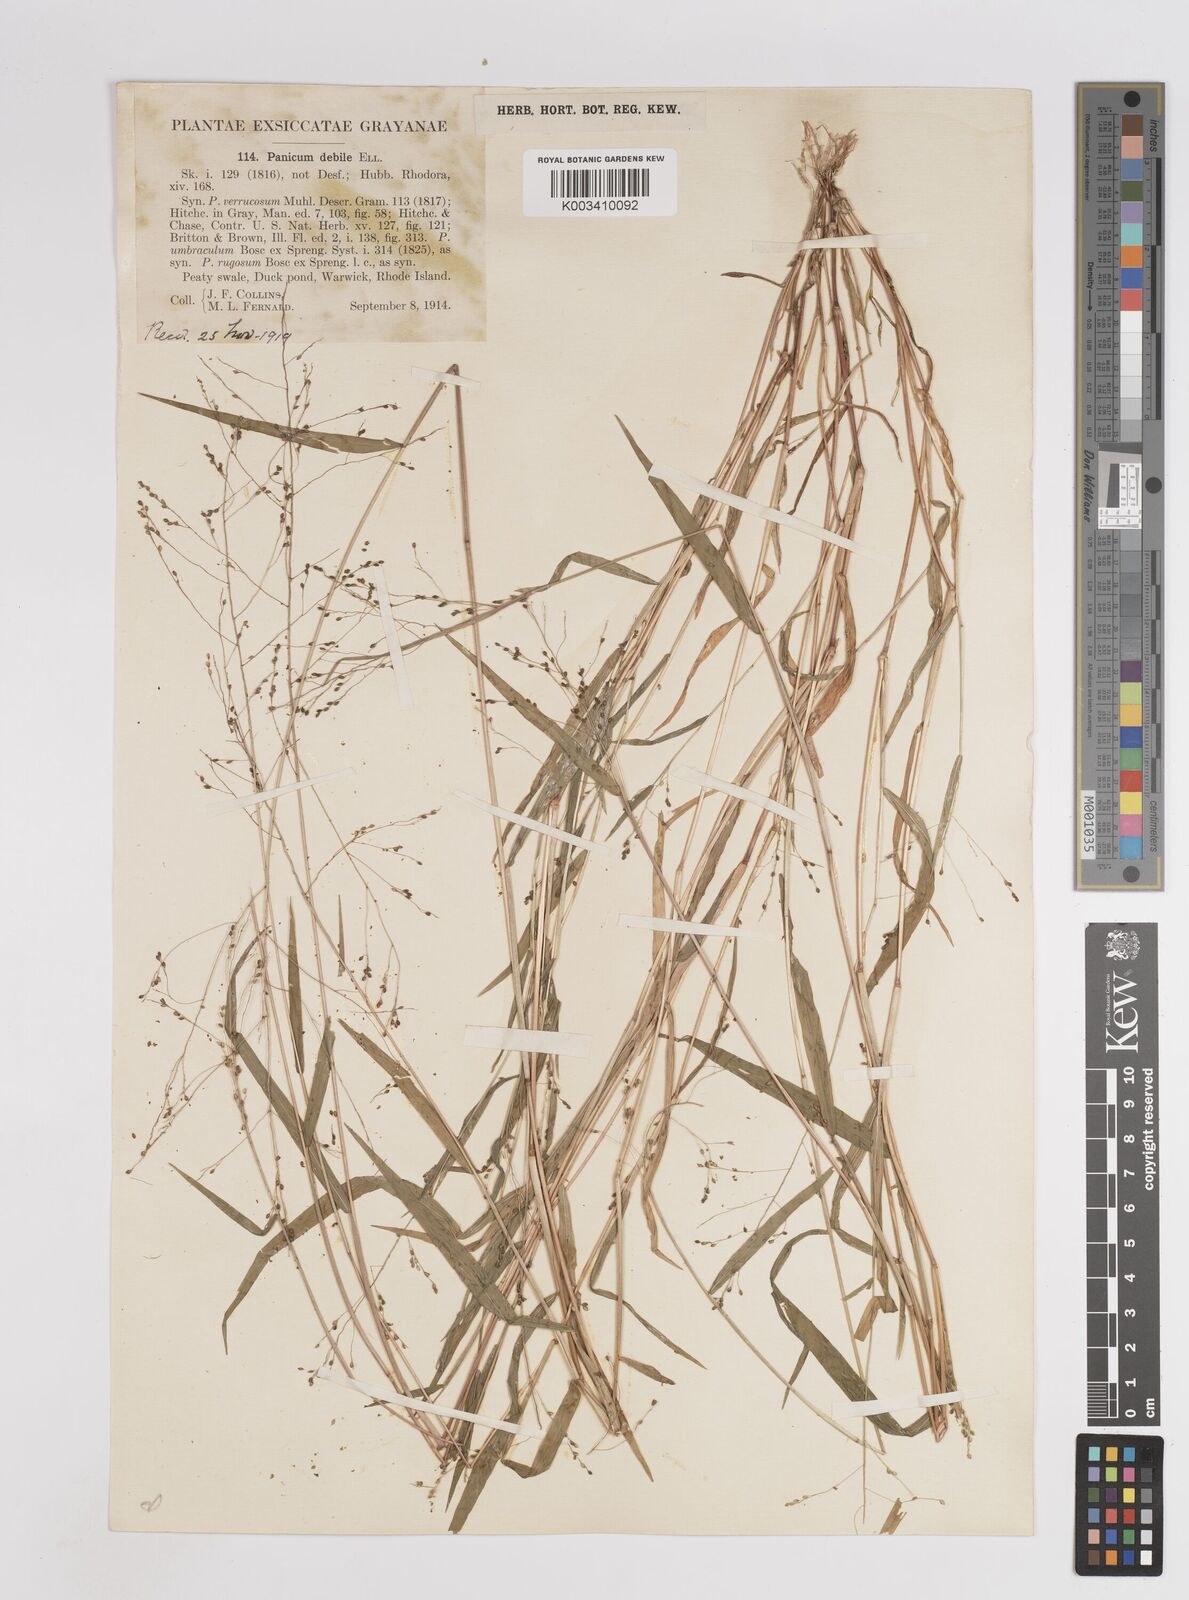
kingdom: Plantae
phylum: Tracheophyta
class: Liliopsida
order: Poales
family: Poaceae
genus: Kellochloa
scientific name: Kellochloa verrucosa
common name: Warty panic grass
